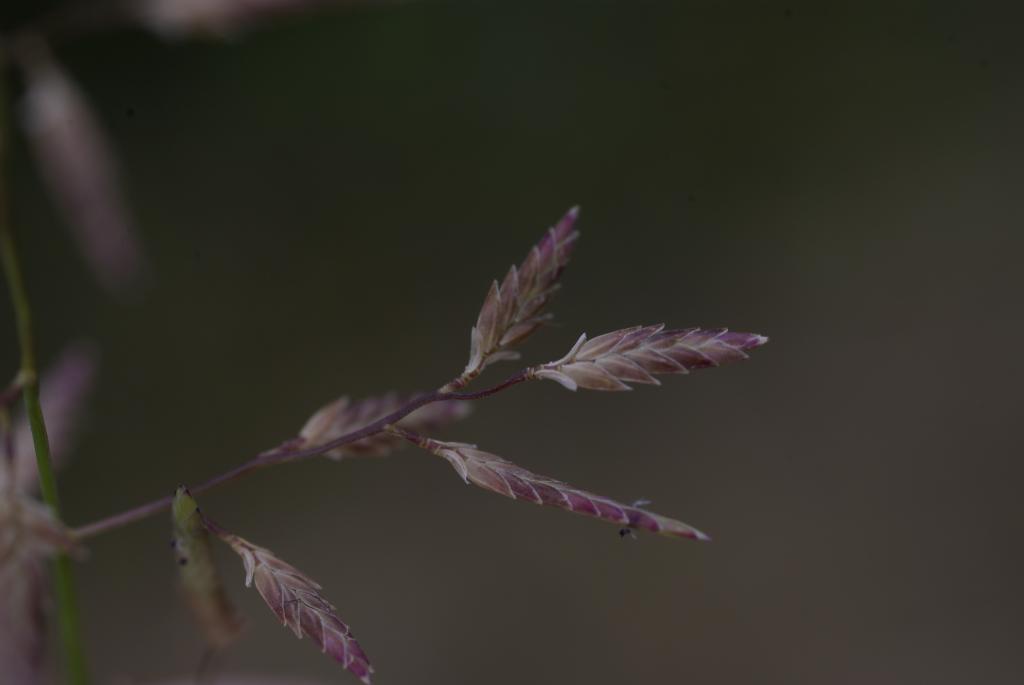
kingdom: Plantae
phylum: Tracheophyta
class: Liliopsida
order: Poales
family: Poaceae
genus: Eragrostis
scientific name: Eragrostis atrovirens
